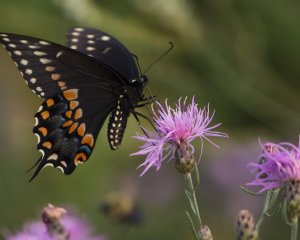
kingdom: Animalia
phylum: Arthropoda
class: Insecta
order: Lepidoptera
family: Papilionidae
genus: Papilio
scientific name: Papilio polyxenes
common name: Black Swallowtail
